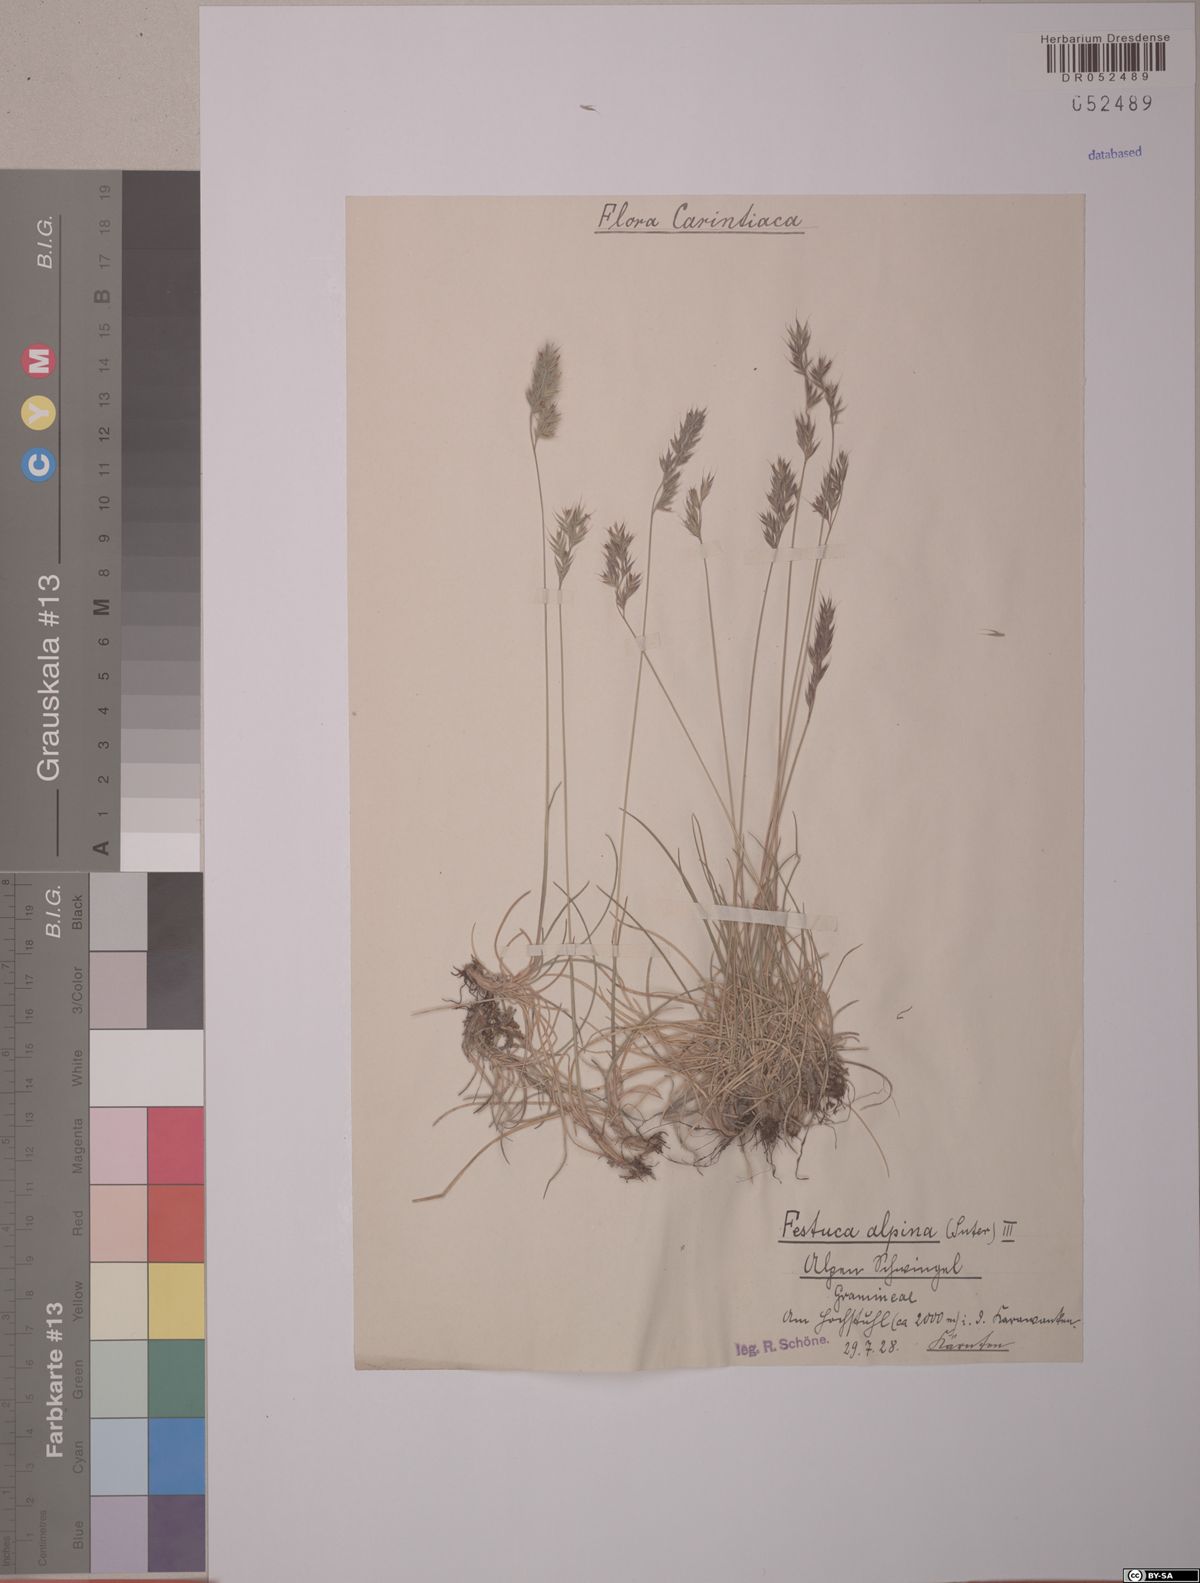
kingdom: Plantae
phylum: Tracheophyta
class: Liliopsida
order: Poales
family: Poaceae
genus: Festuca
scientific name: Festuca alpina
